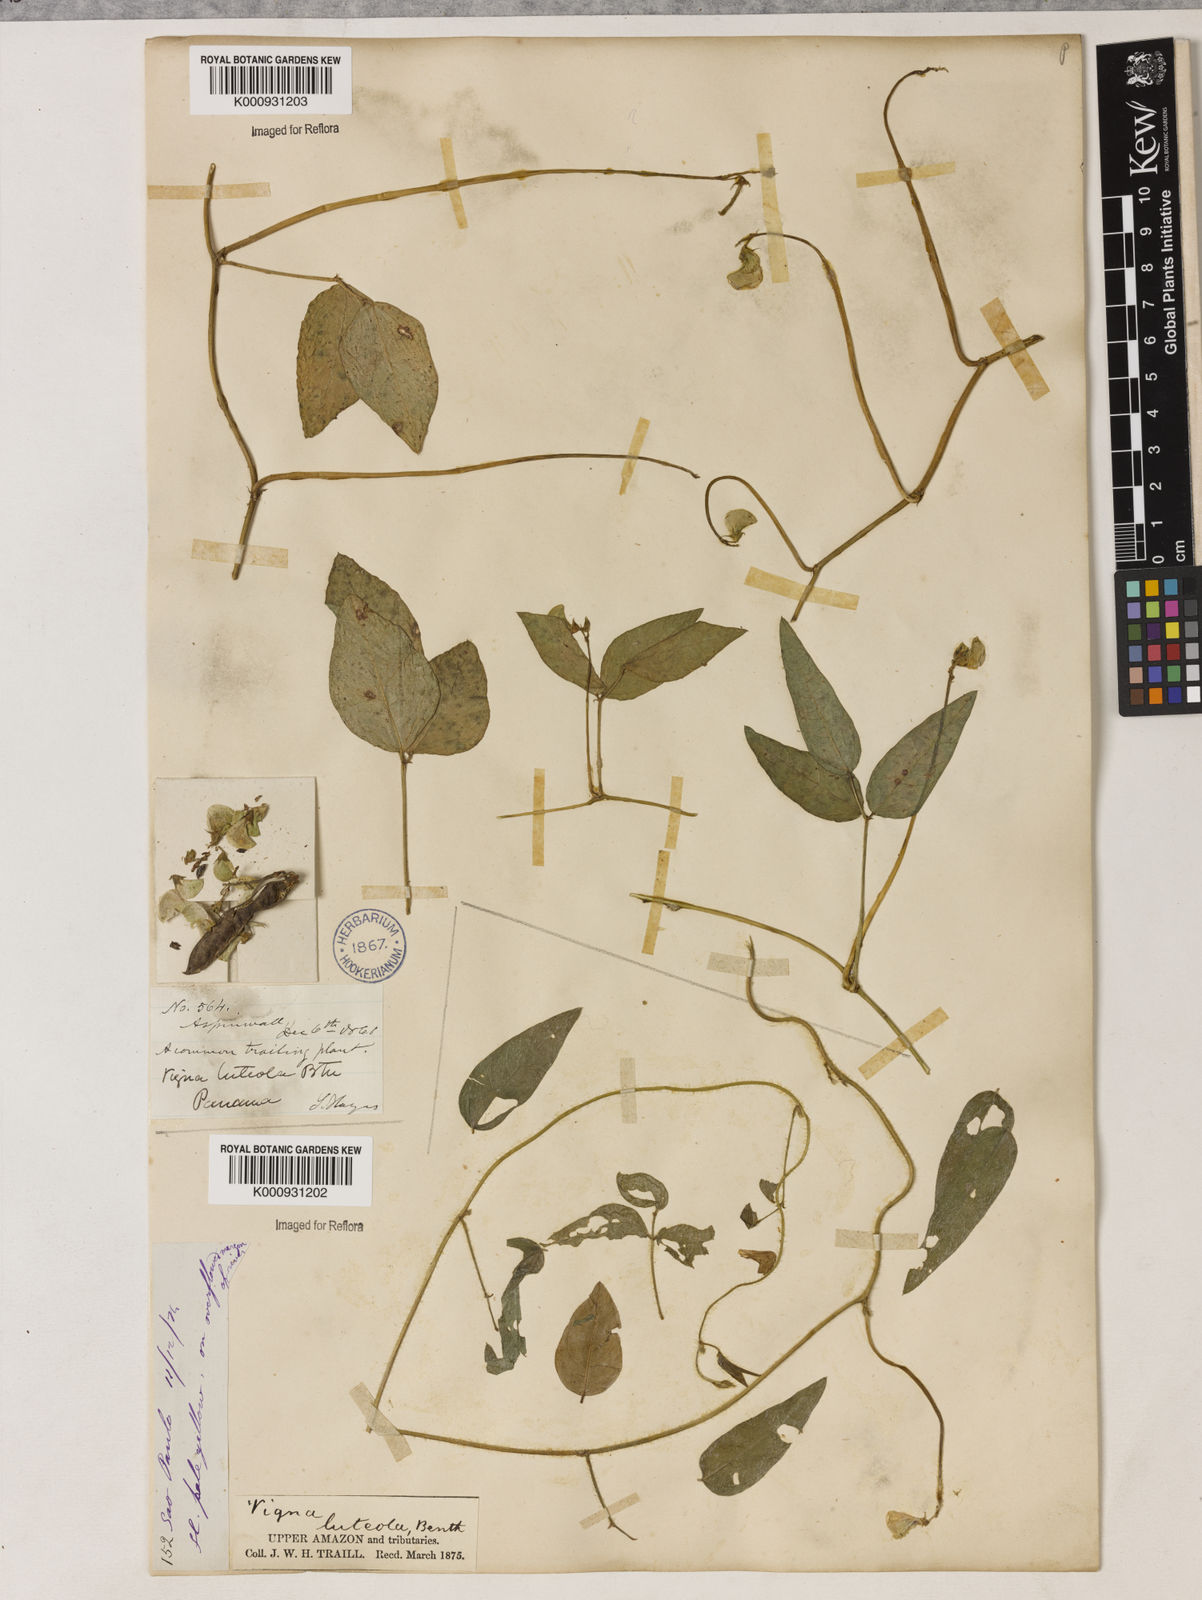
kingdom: Plantae
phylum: Tracheophyta
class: Magnoliopsida
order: Fabales
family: Fabaceae
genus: Vigna
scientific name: Vigna luteola
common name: Hairypod cowpea
